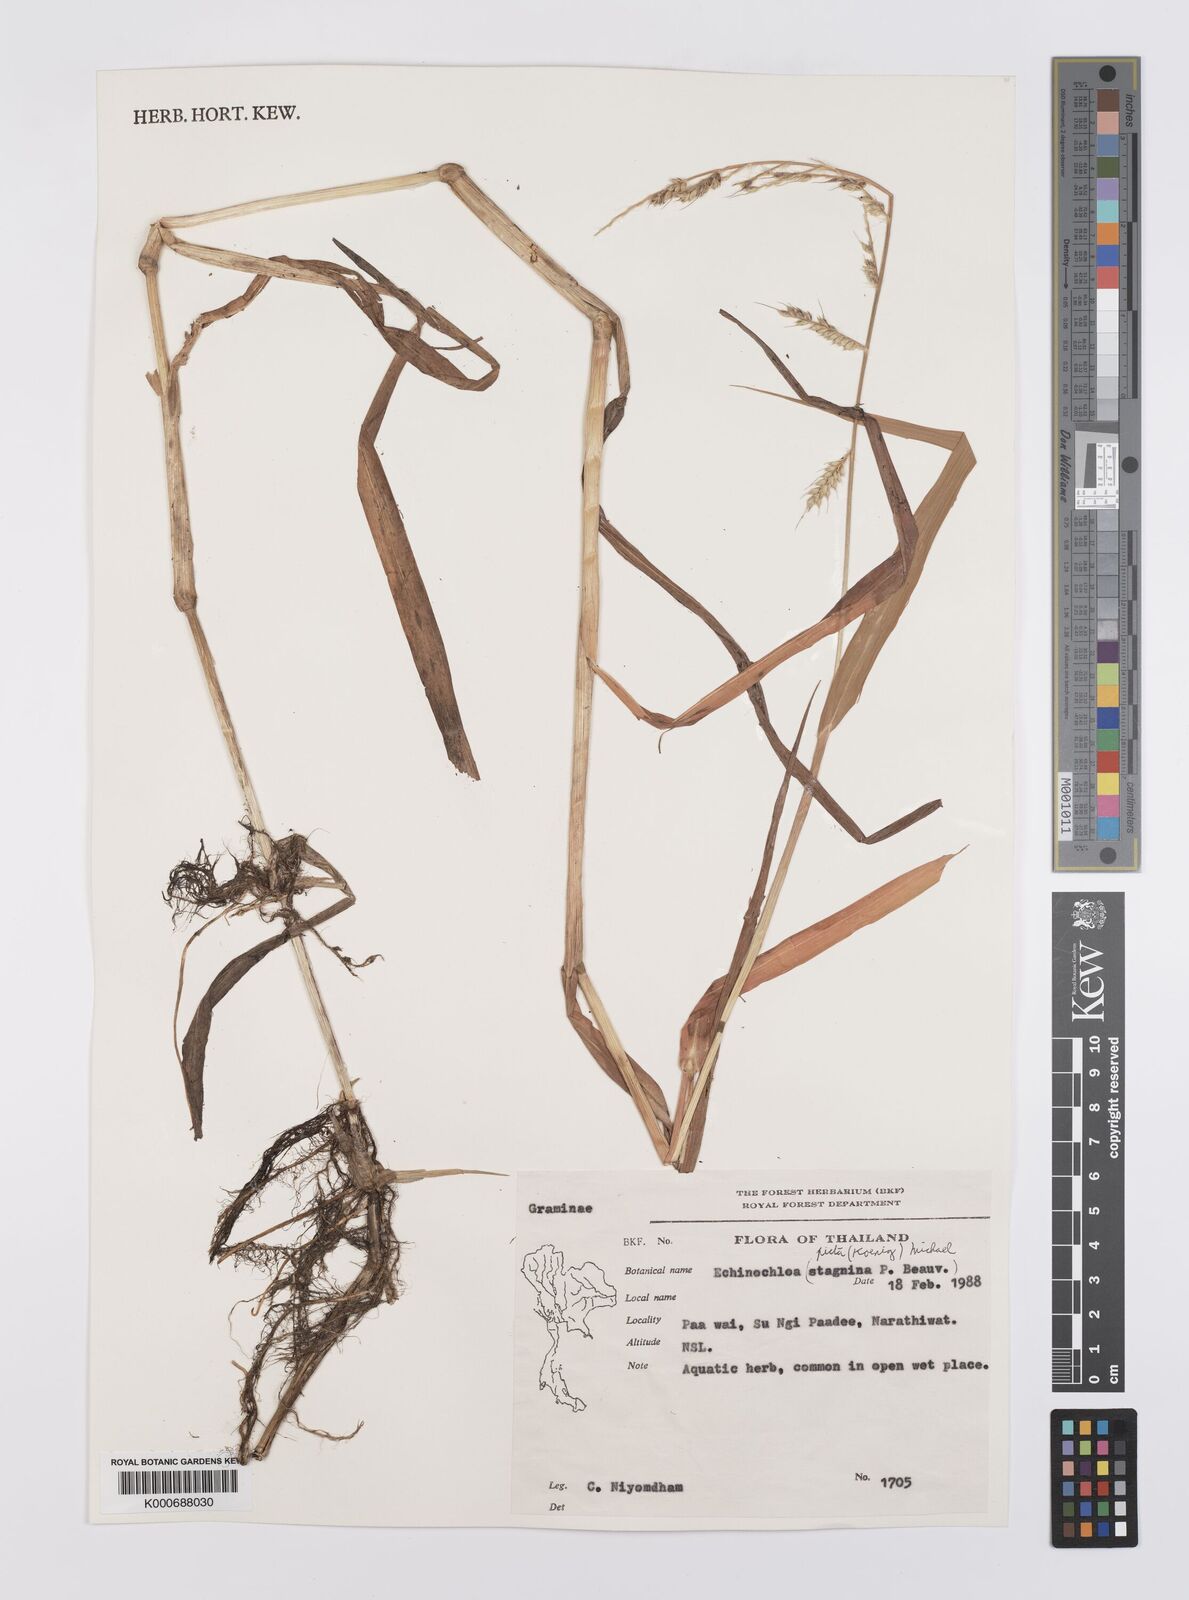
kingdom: Plantae
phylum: Tracheophyta
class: Liliopsida
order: Poales
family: Poaceae
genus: Echinochloa
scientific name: Echinochloa picta
